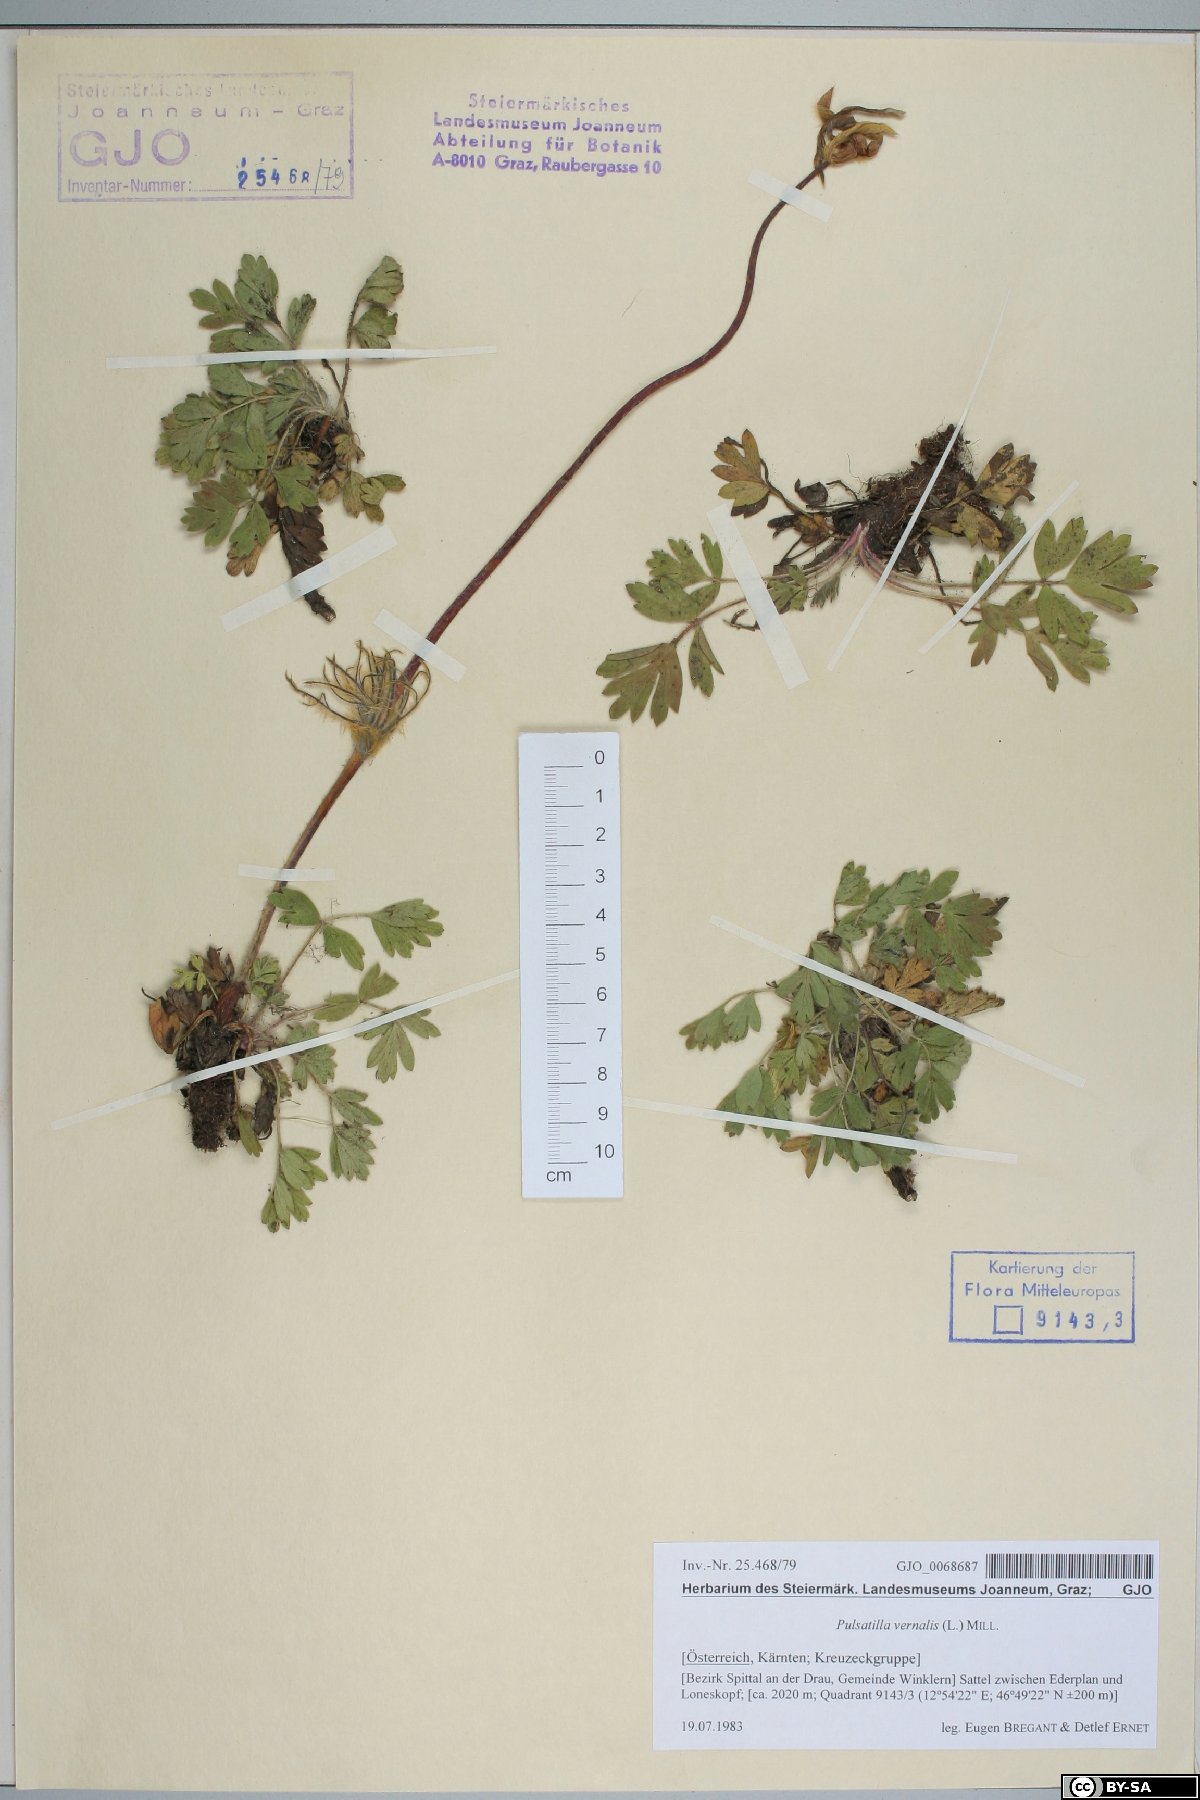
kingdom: Plantae
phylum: Tracheophyta
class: Magnoliopsida
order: Ranunculales
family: Ranunculaceae
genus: Pulsatilla
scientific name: Pulsatilla vernalis
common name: Spring pasque flower
